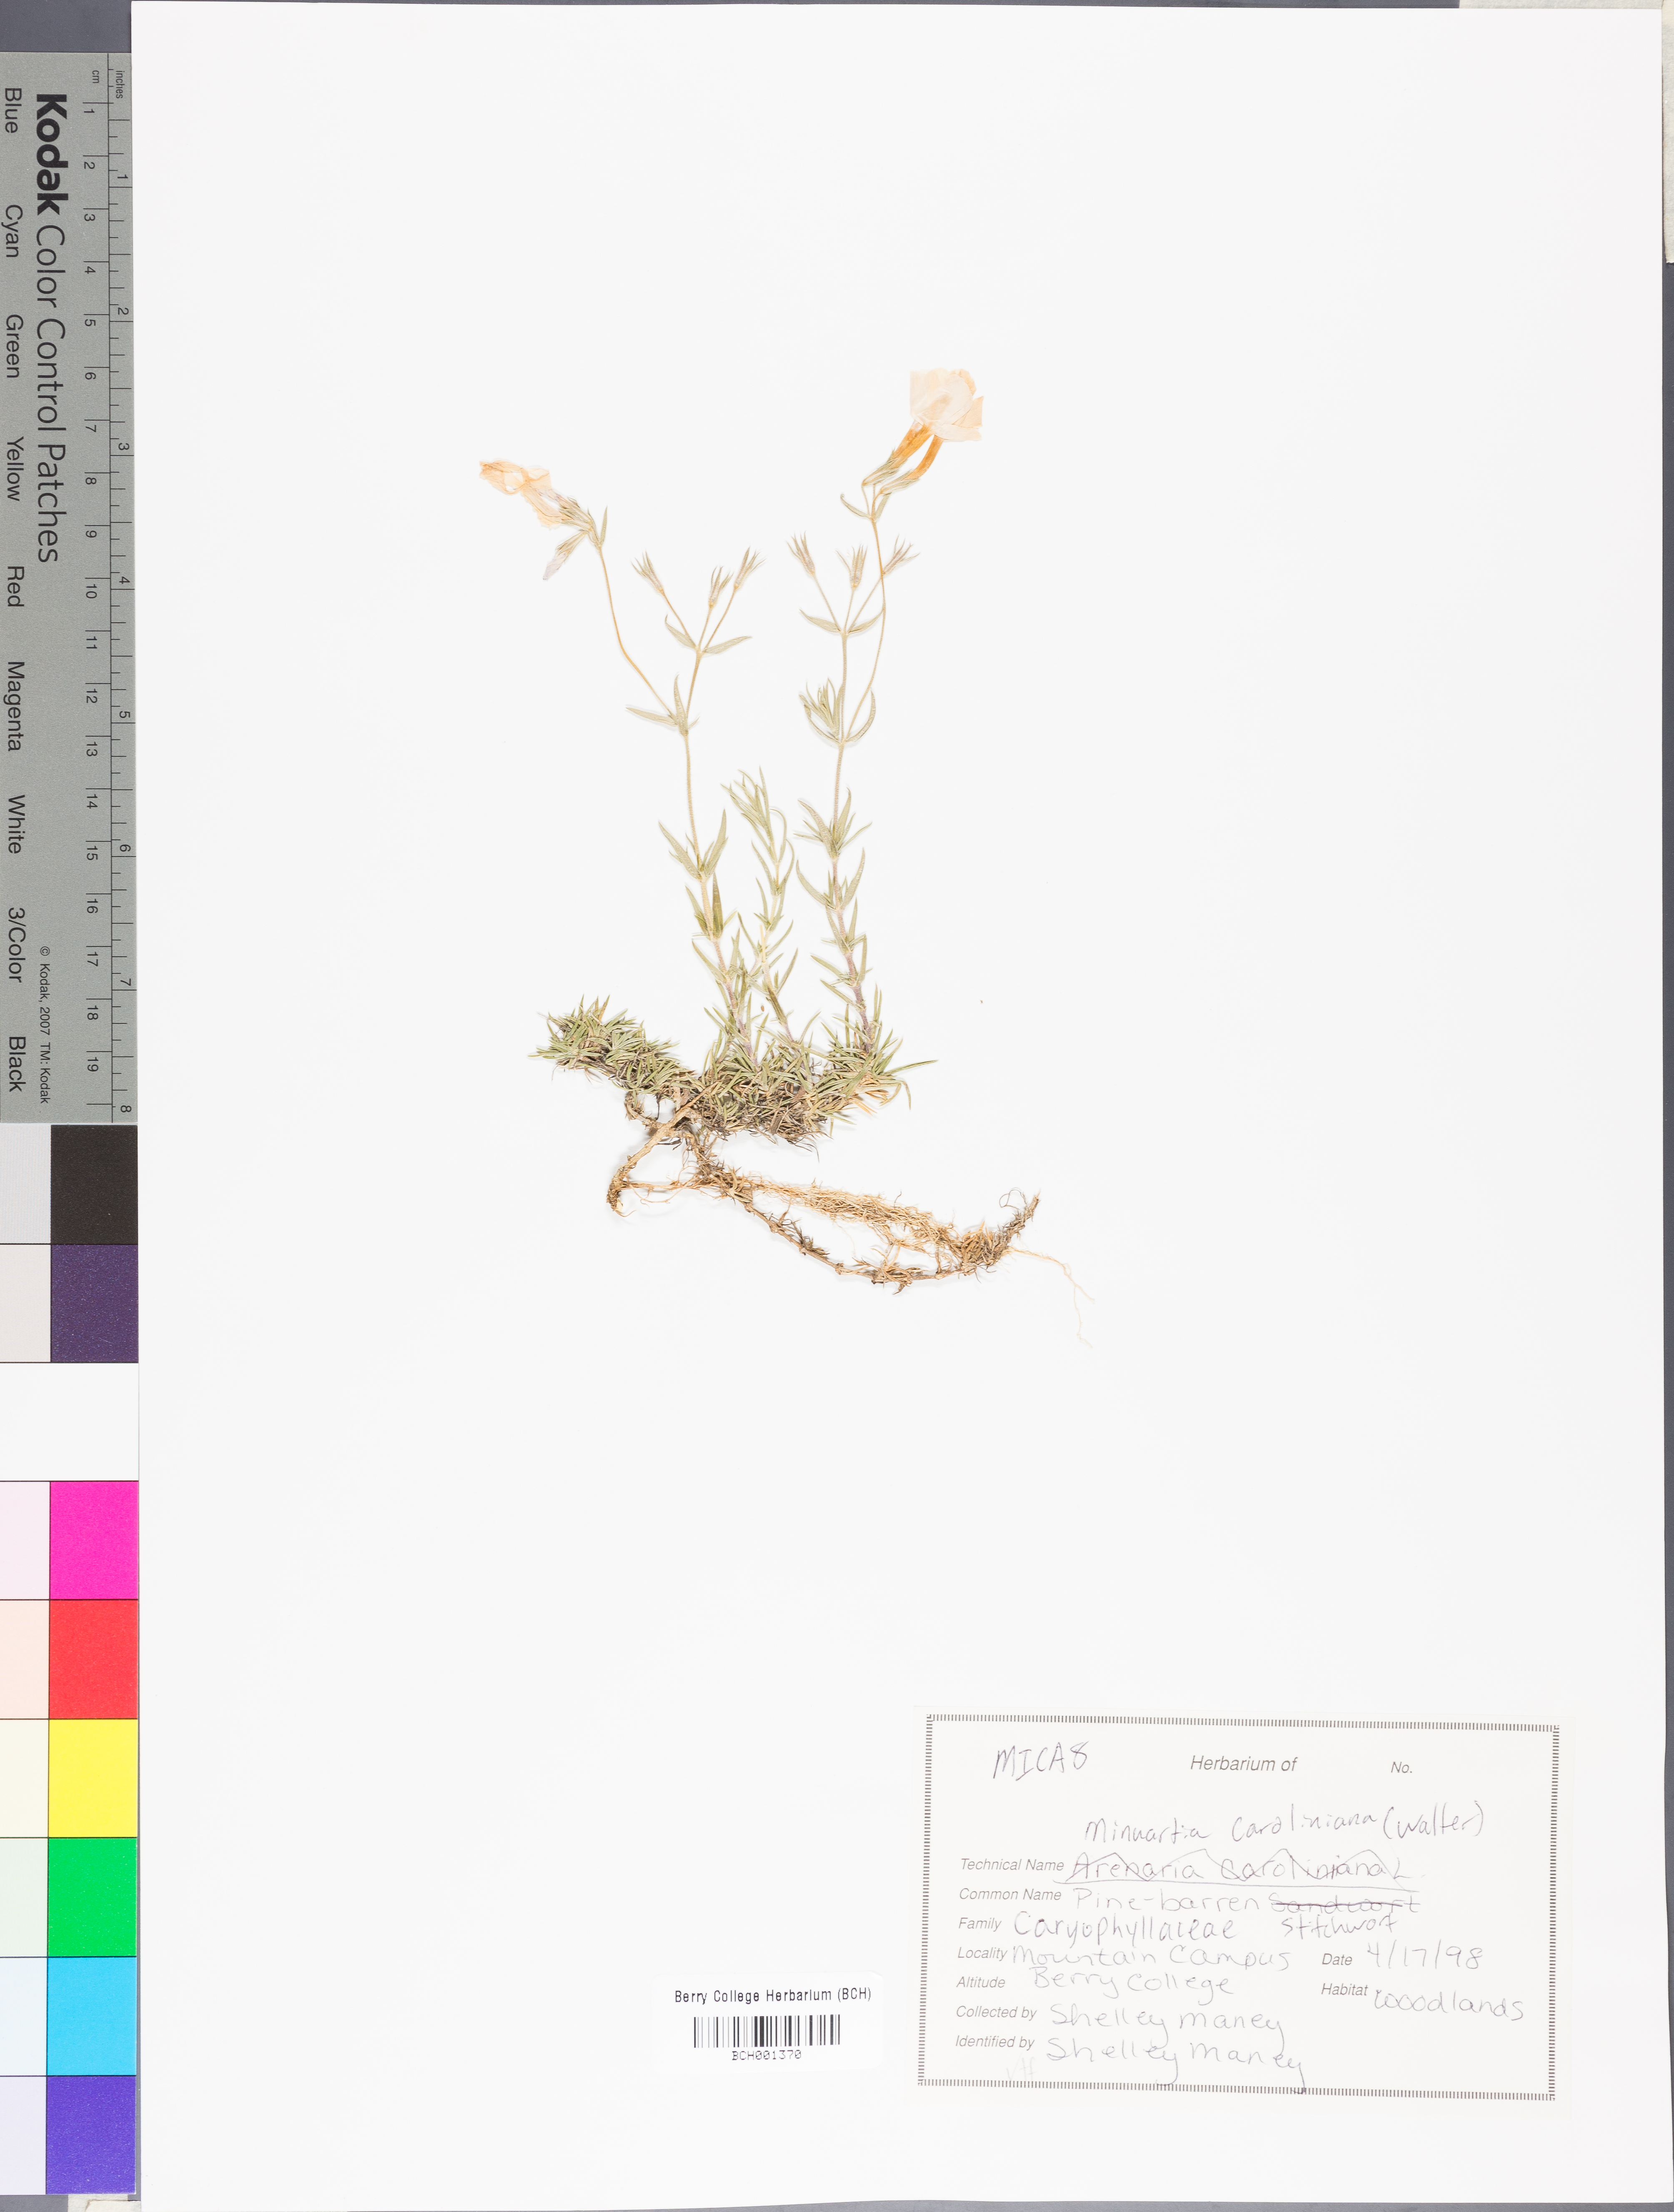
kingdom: Plantae
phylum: Tracheophyta
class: Magnoliopsida
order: Caryophyllales
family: Caryophyllaceae
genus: Geocarpon
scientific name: Geocarpon carolinianum
